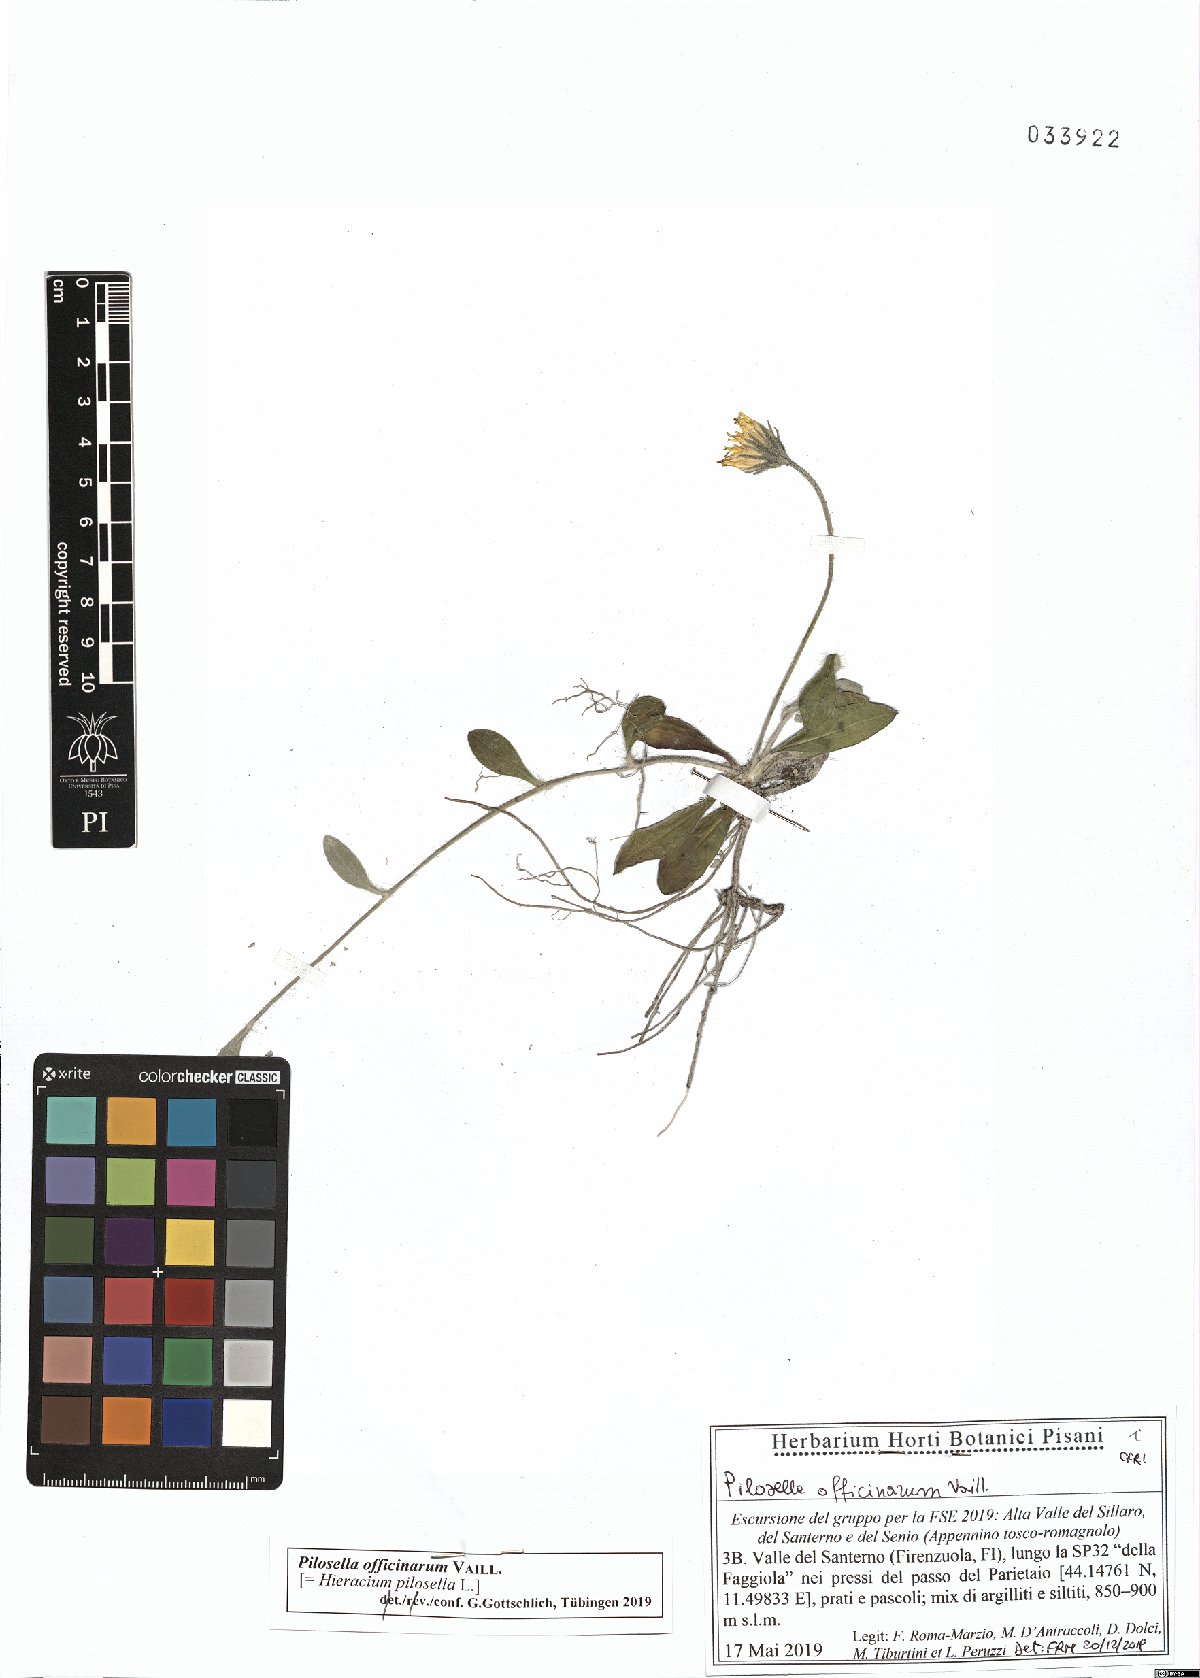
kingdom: Plantae
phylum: Tracheophyta
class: Magnoliopsida
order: Asterales
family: Asteraceae
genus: Pilosella
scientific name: Pilosella officinarum
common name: Mouse-ear hawkweed
